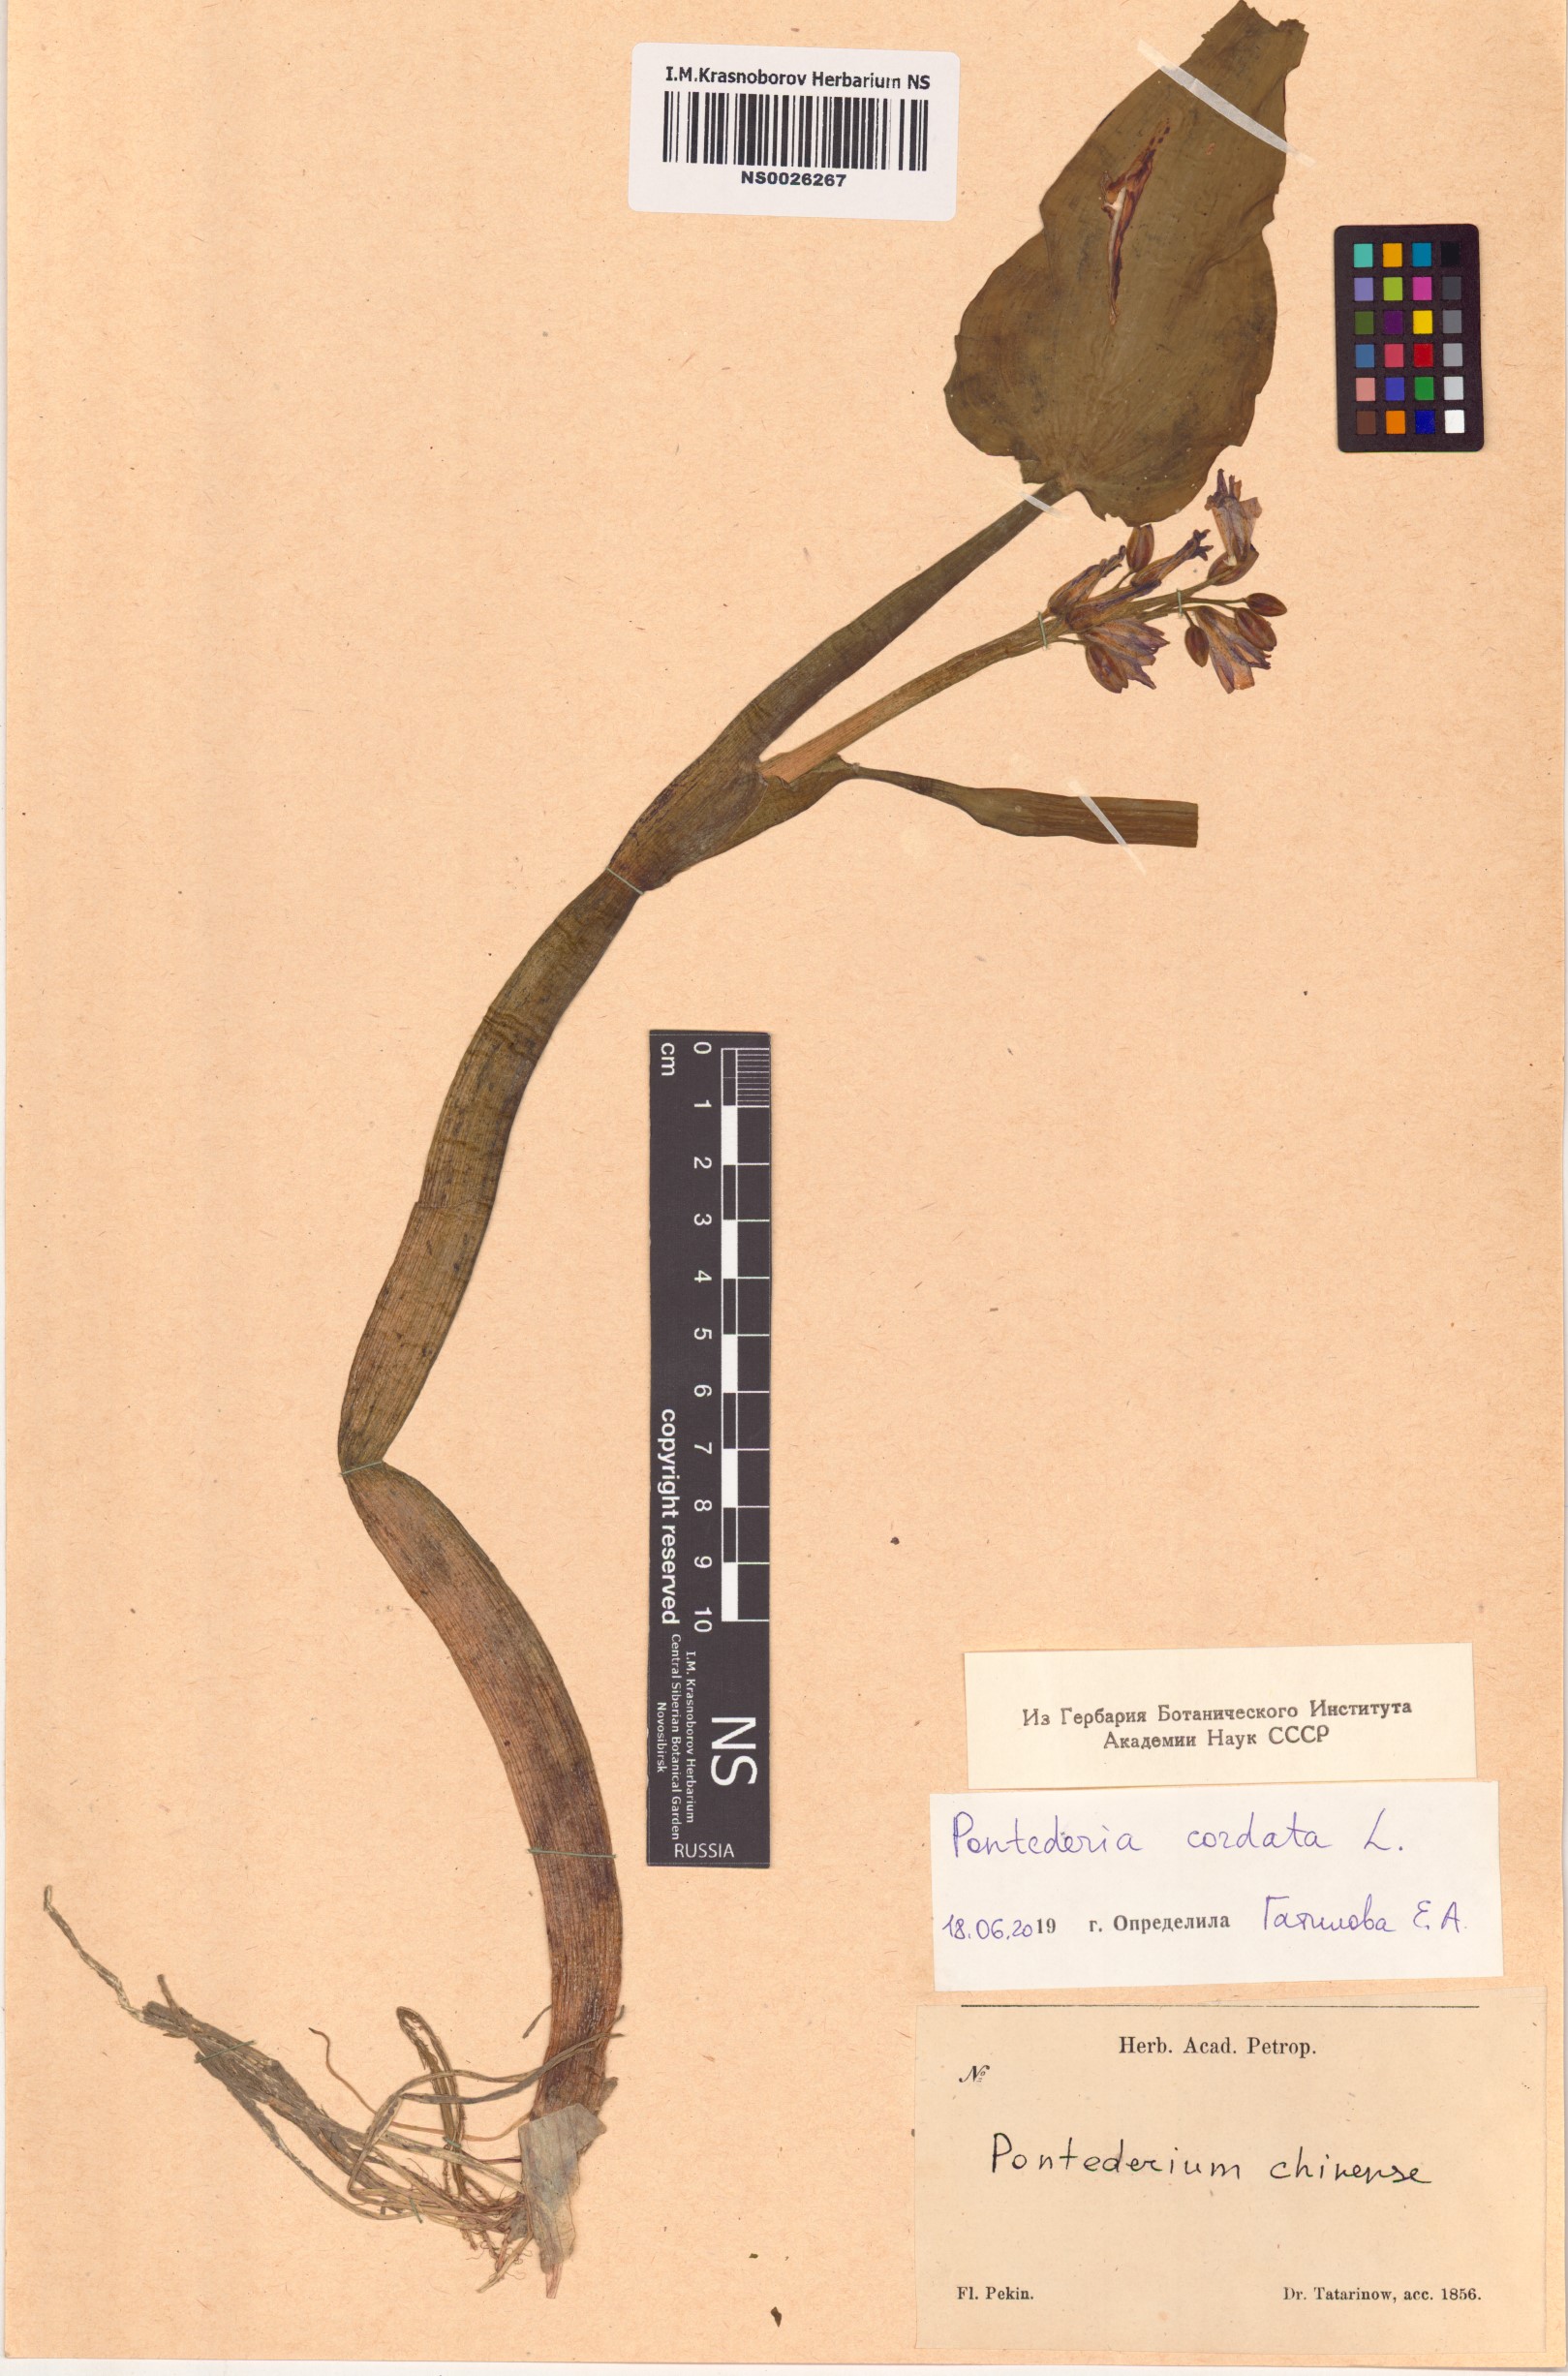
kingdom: Plantae
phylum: Tracheophyta
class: Liliopsida
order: Commelinales
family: Pontederiaceae
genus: Pontederia
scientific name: Pontederia cordata
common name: Pickerelweed
